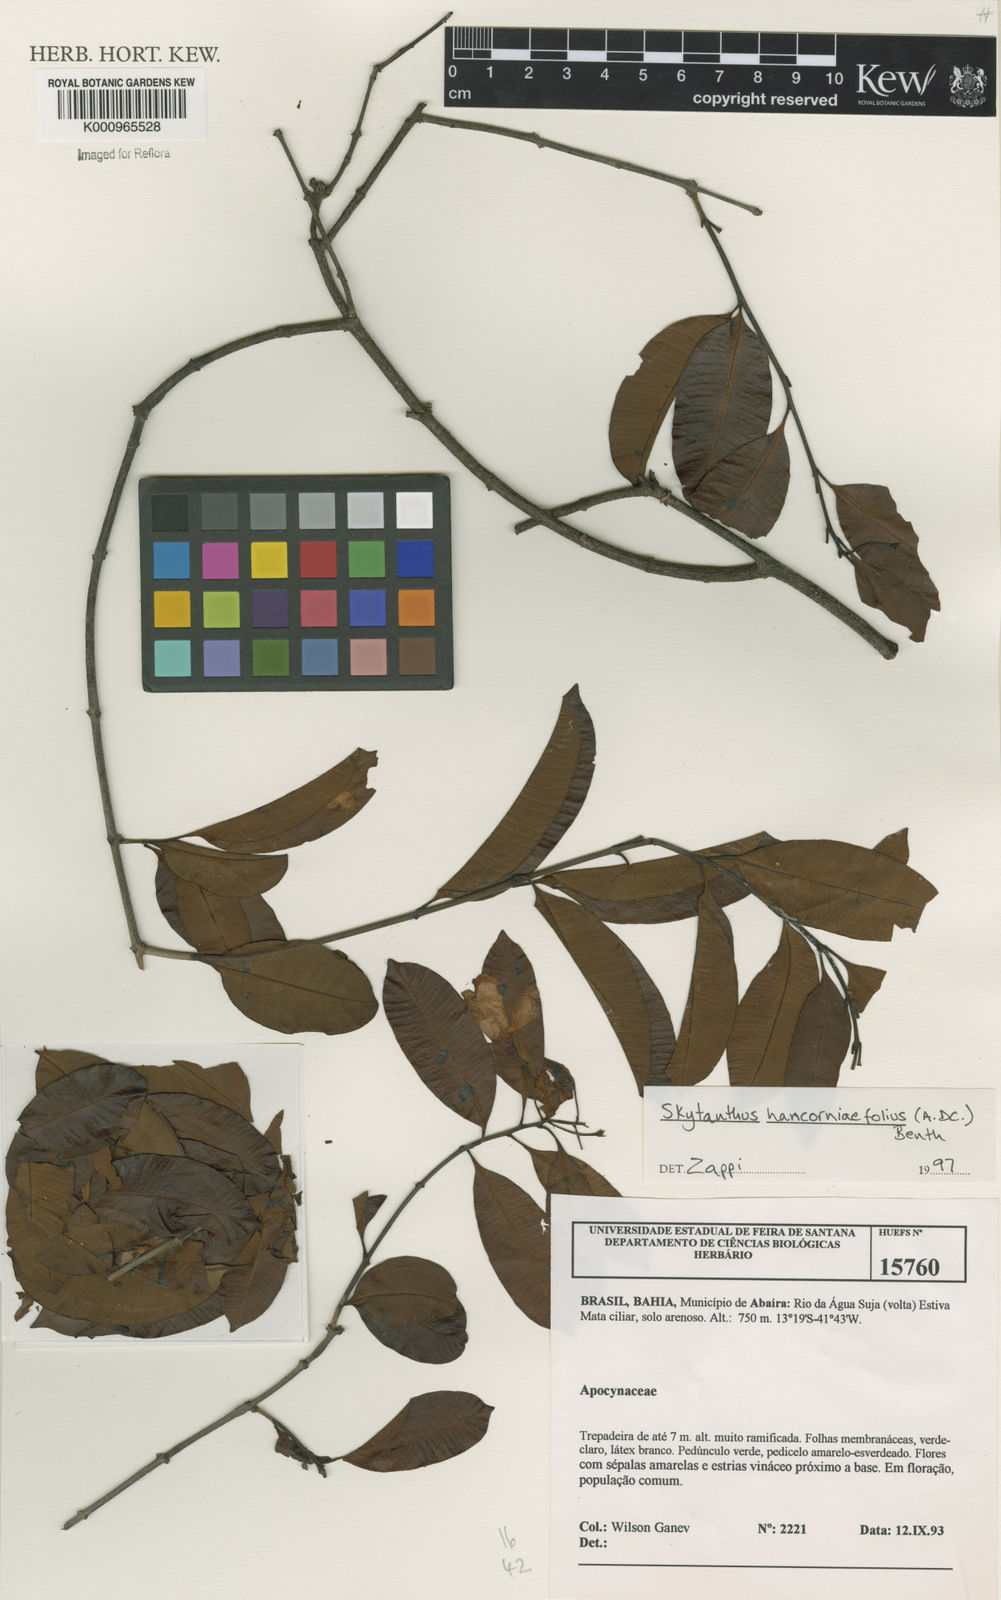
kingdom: Plantae
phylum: Tracheophyta
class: Magnoliopsida
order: Gentianales
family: Apocynaceae
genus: Skytanthus
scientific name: Skytanthus hancorniifolius
